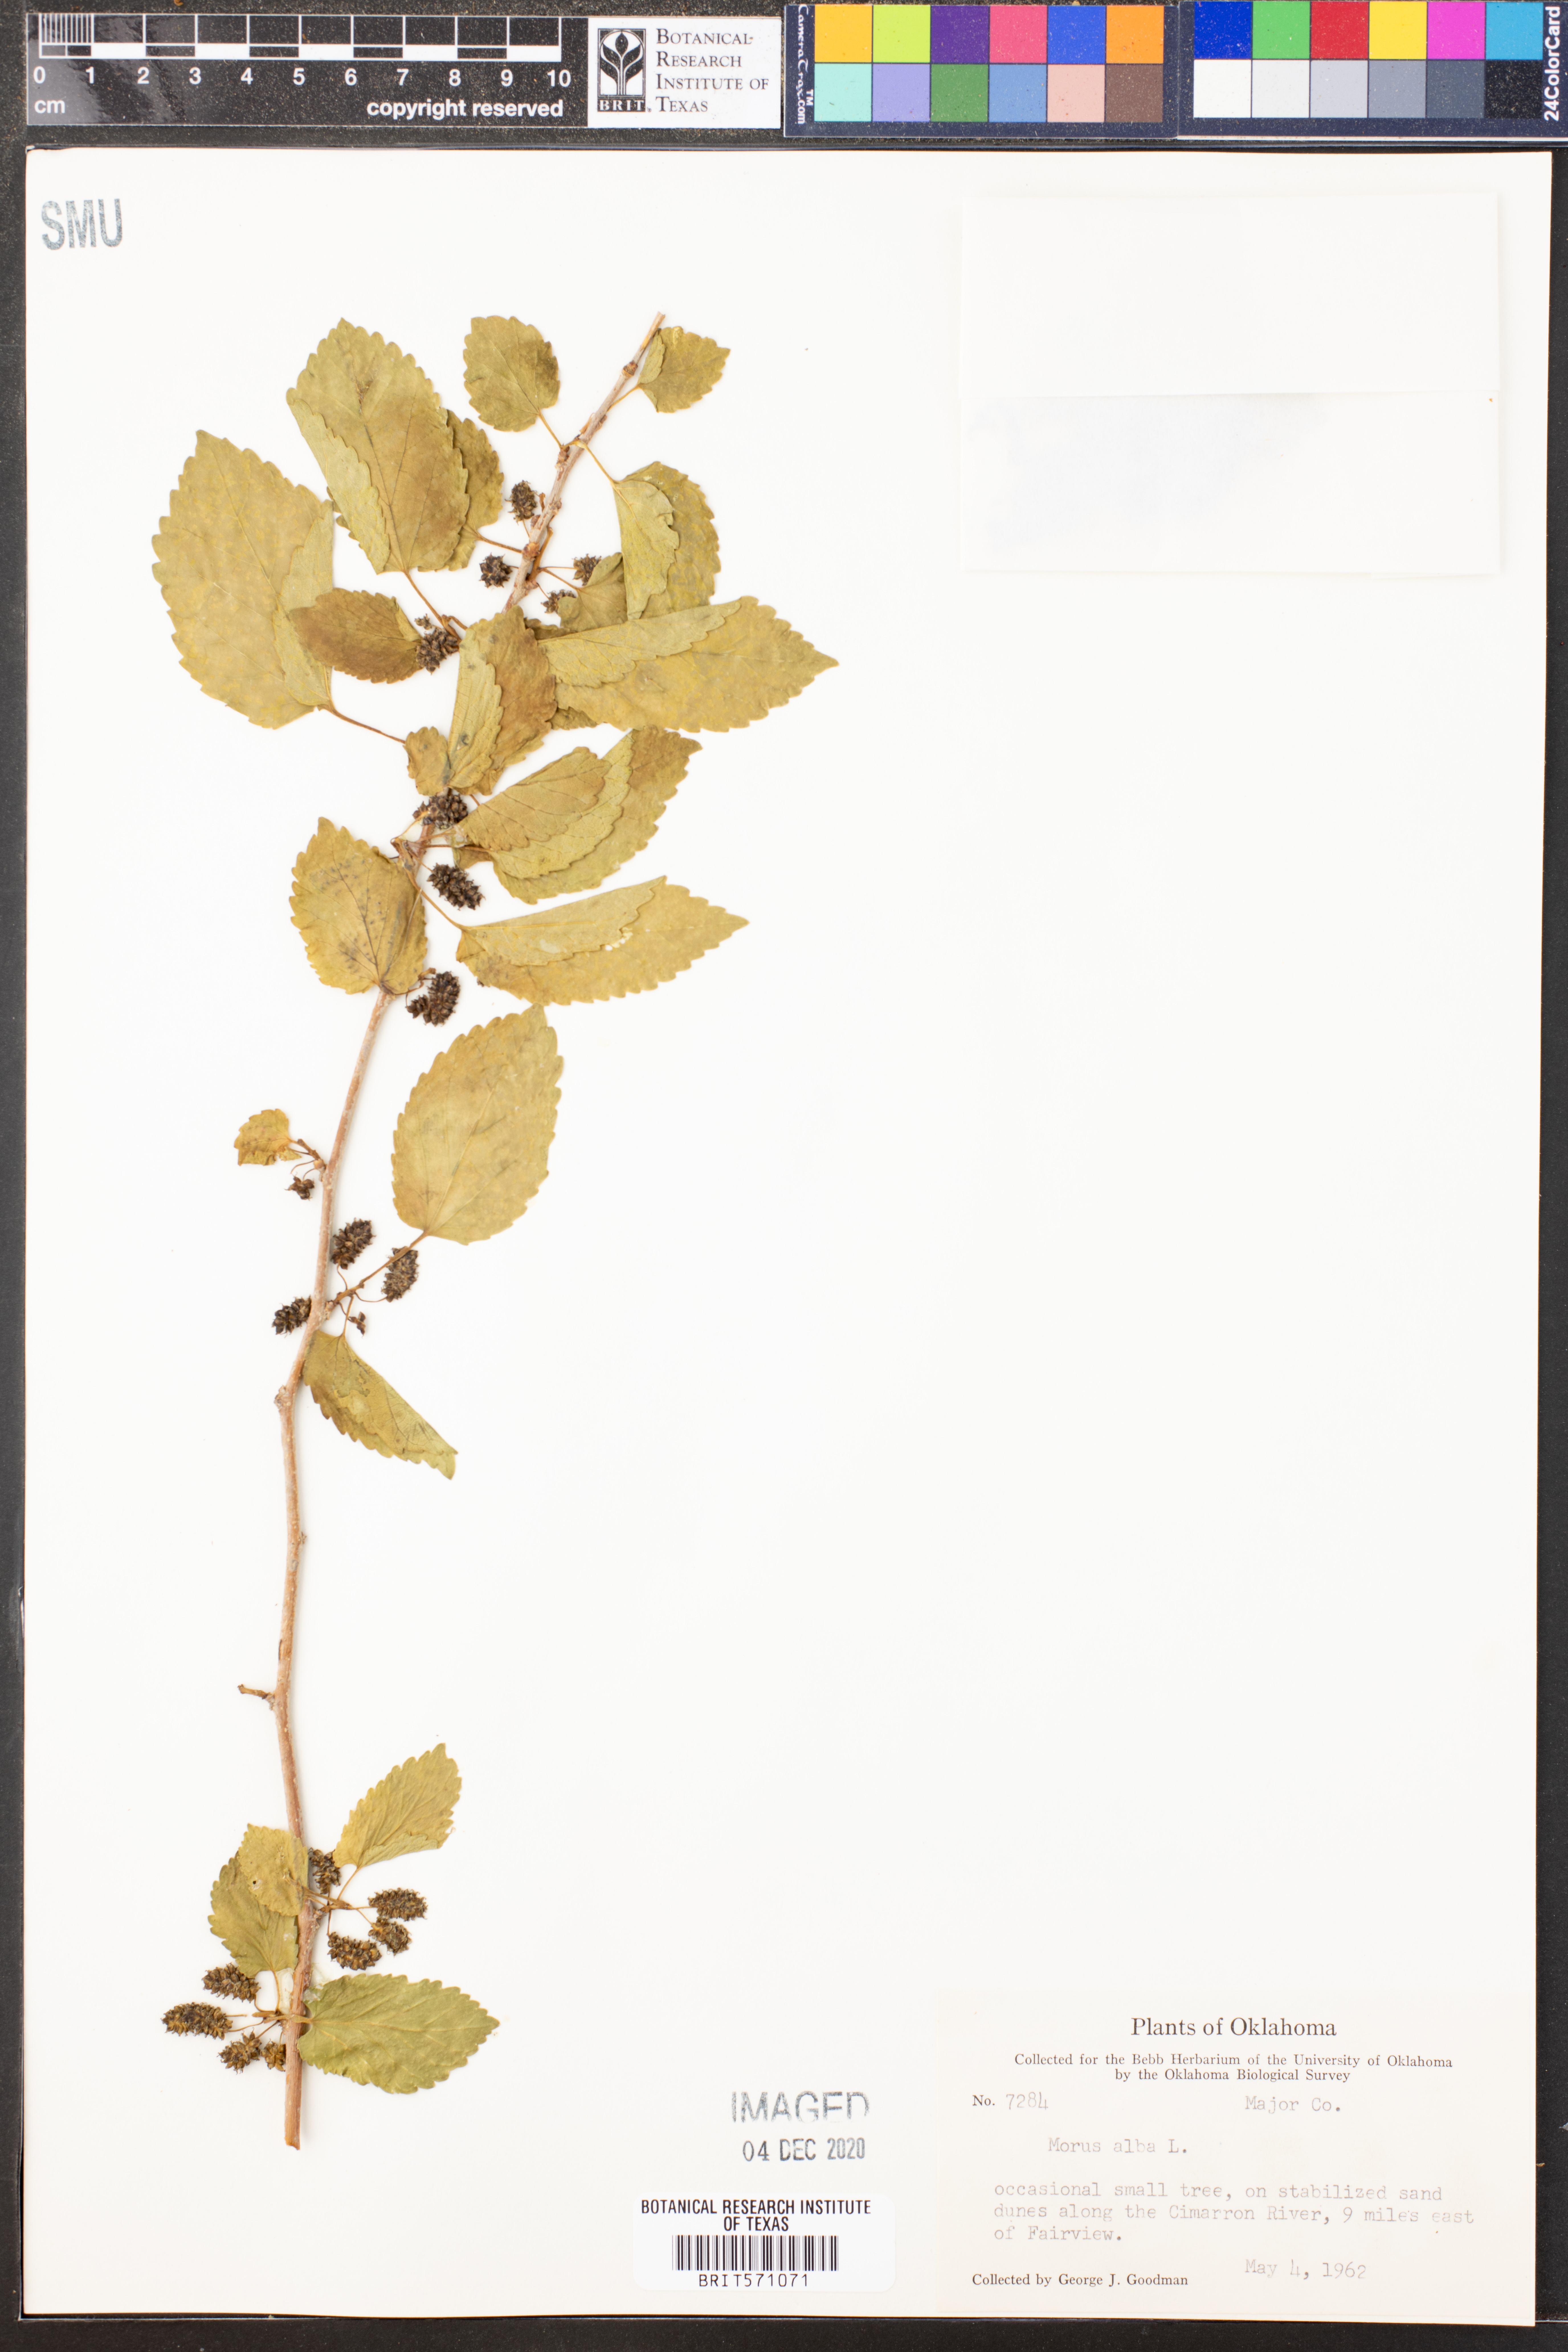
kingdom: Plantae
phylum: Tracheophyta
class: Magnoliopsida
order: Rosales
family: Moraceae
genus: Morus
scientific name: Morus alba
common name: White mulberry
